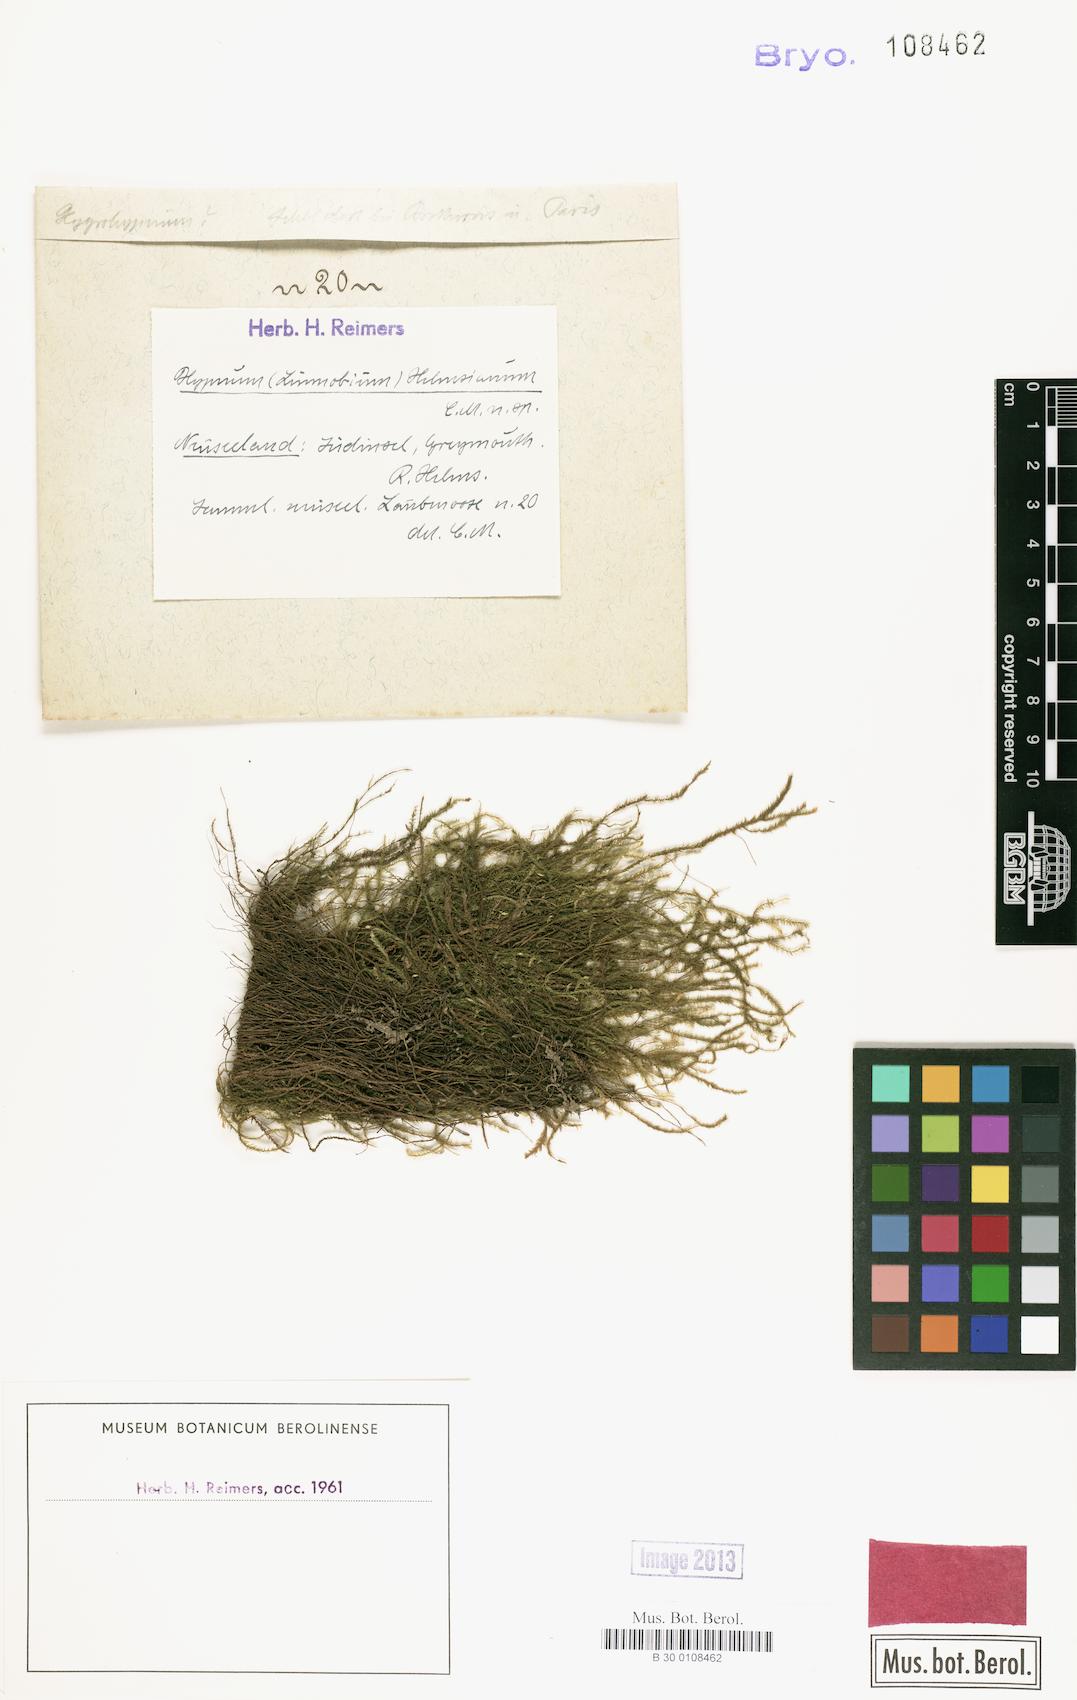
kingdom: Plantae
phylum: Bryophyta
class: Bryopsida
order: Hypnales
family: Hypnaceae
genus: Hypnum
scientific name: Hypnum
